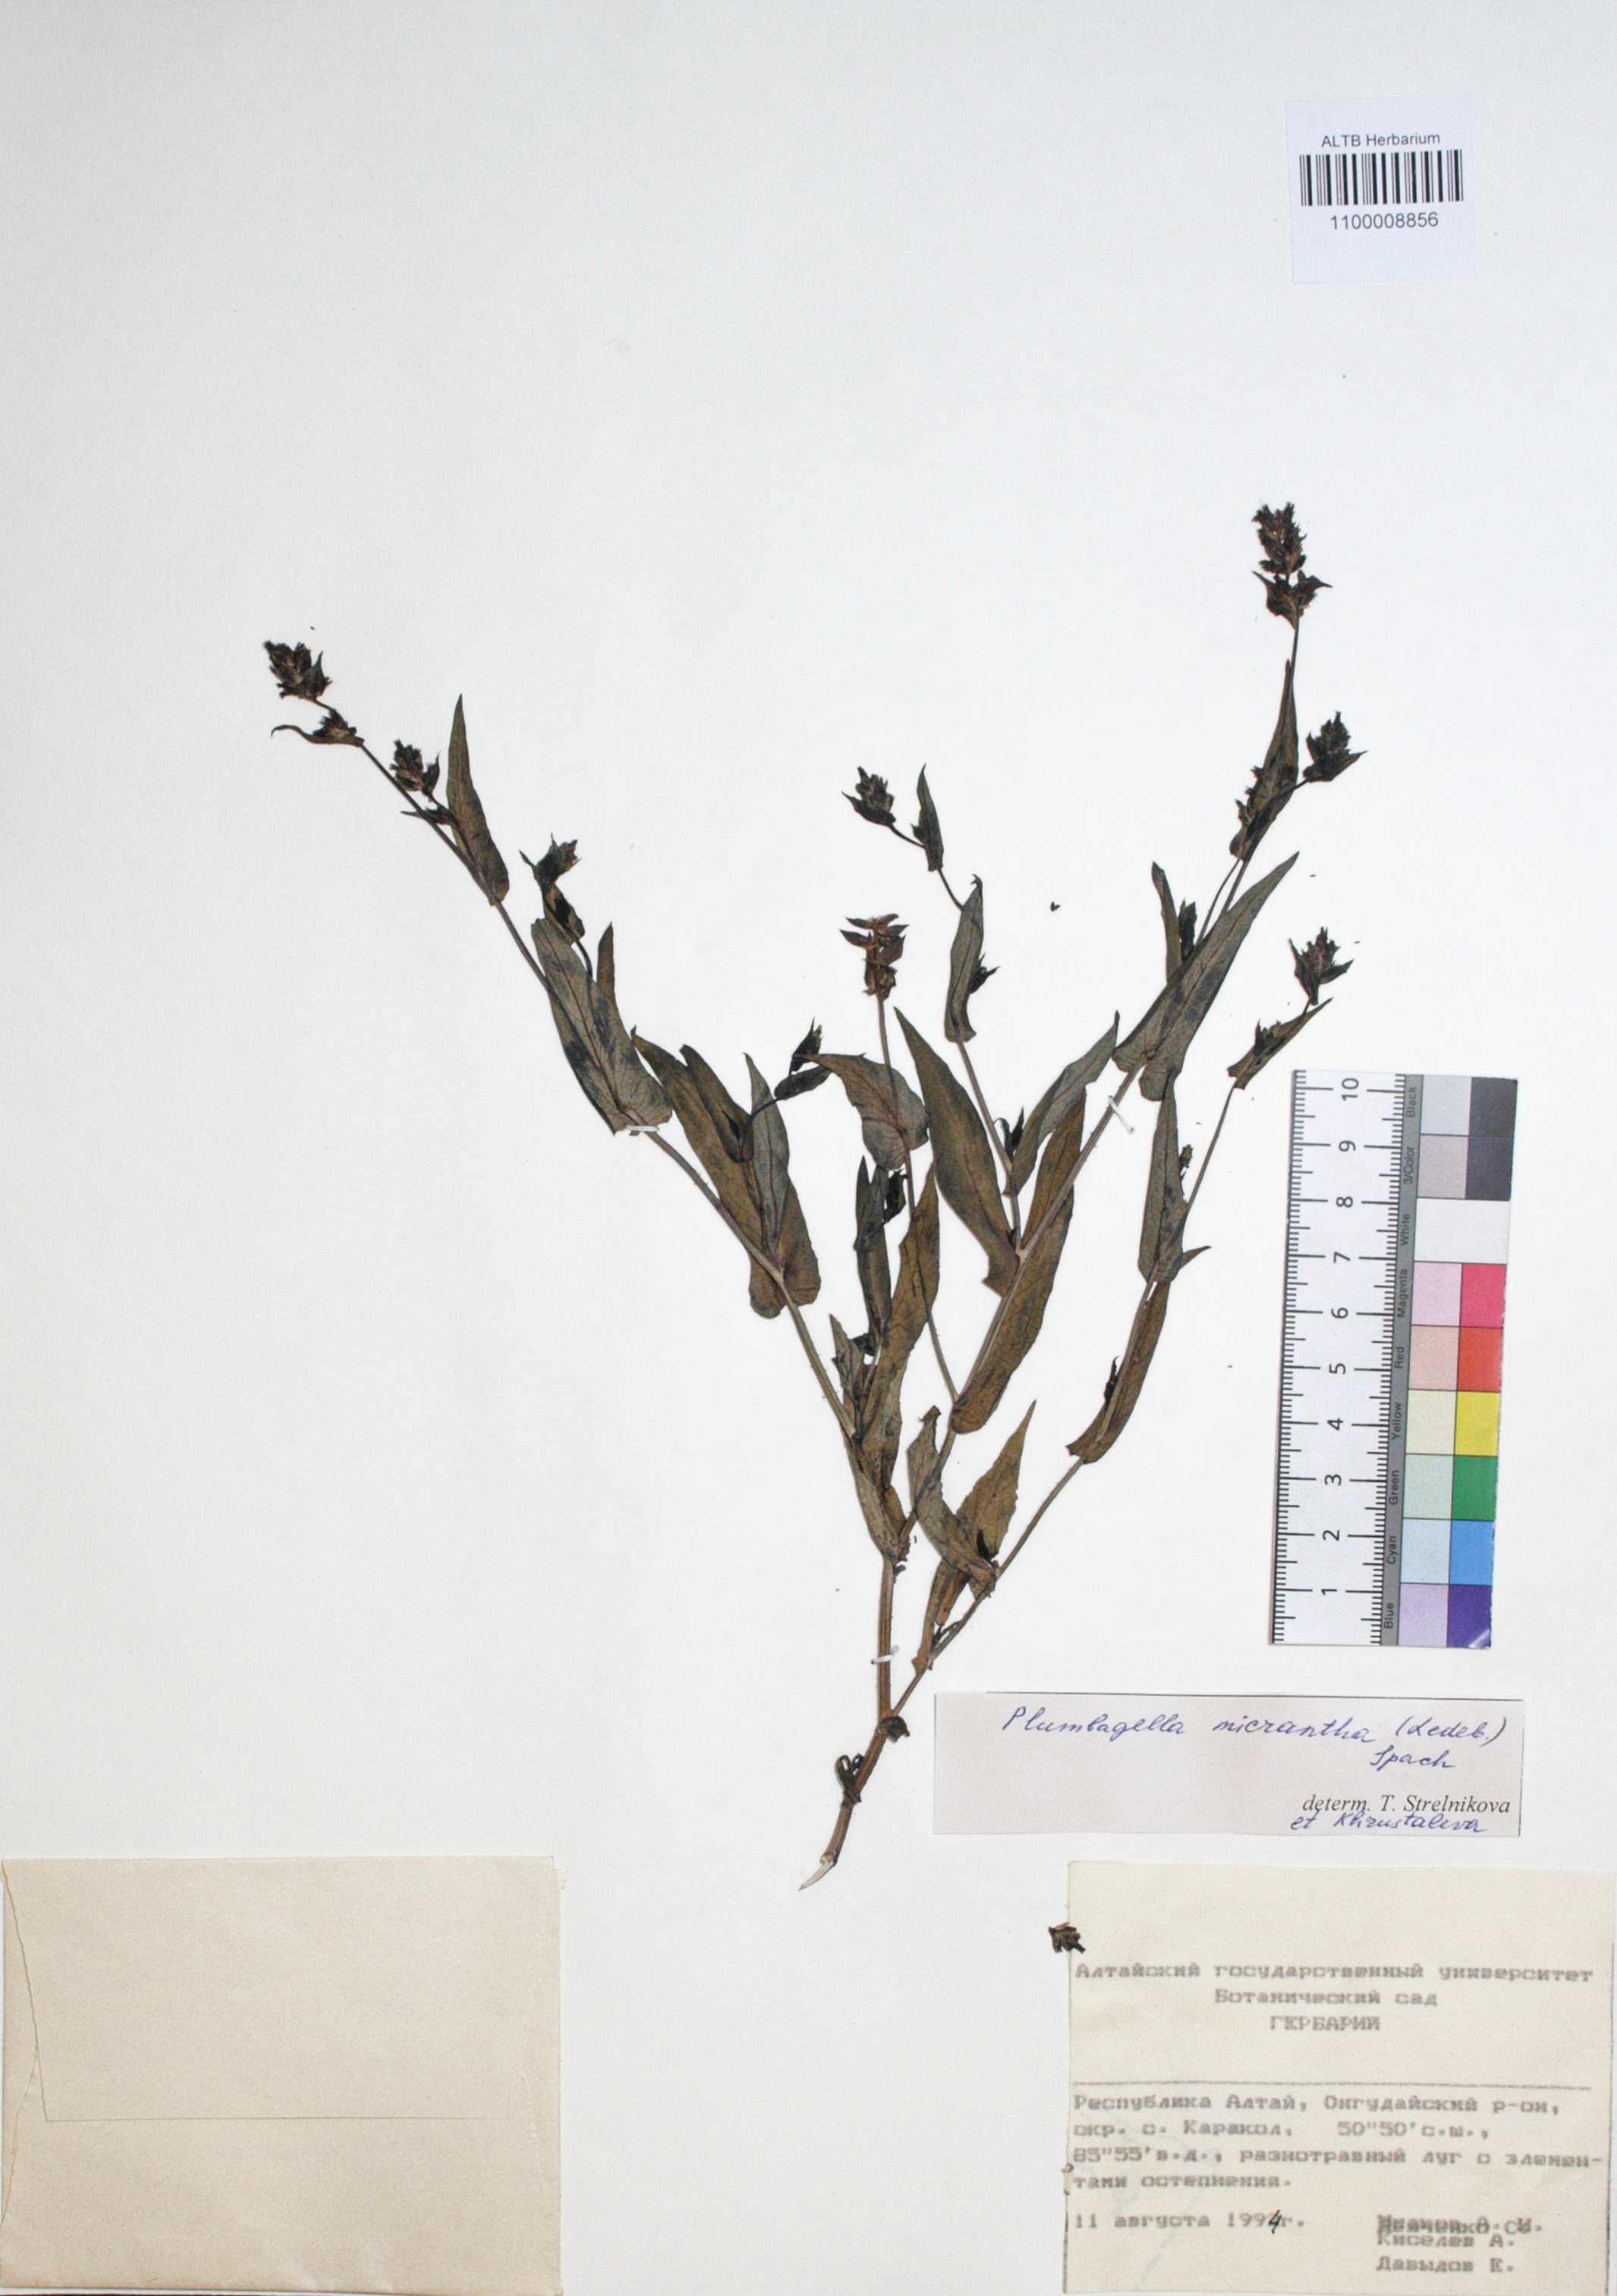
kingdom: Plantae
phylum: Tracheophyta
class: Magnoliopsida
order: Caryophyllales
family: Plumbaginaceae
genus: Plumbagella
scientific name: Plumbagella micrantha
